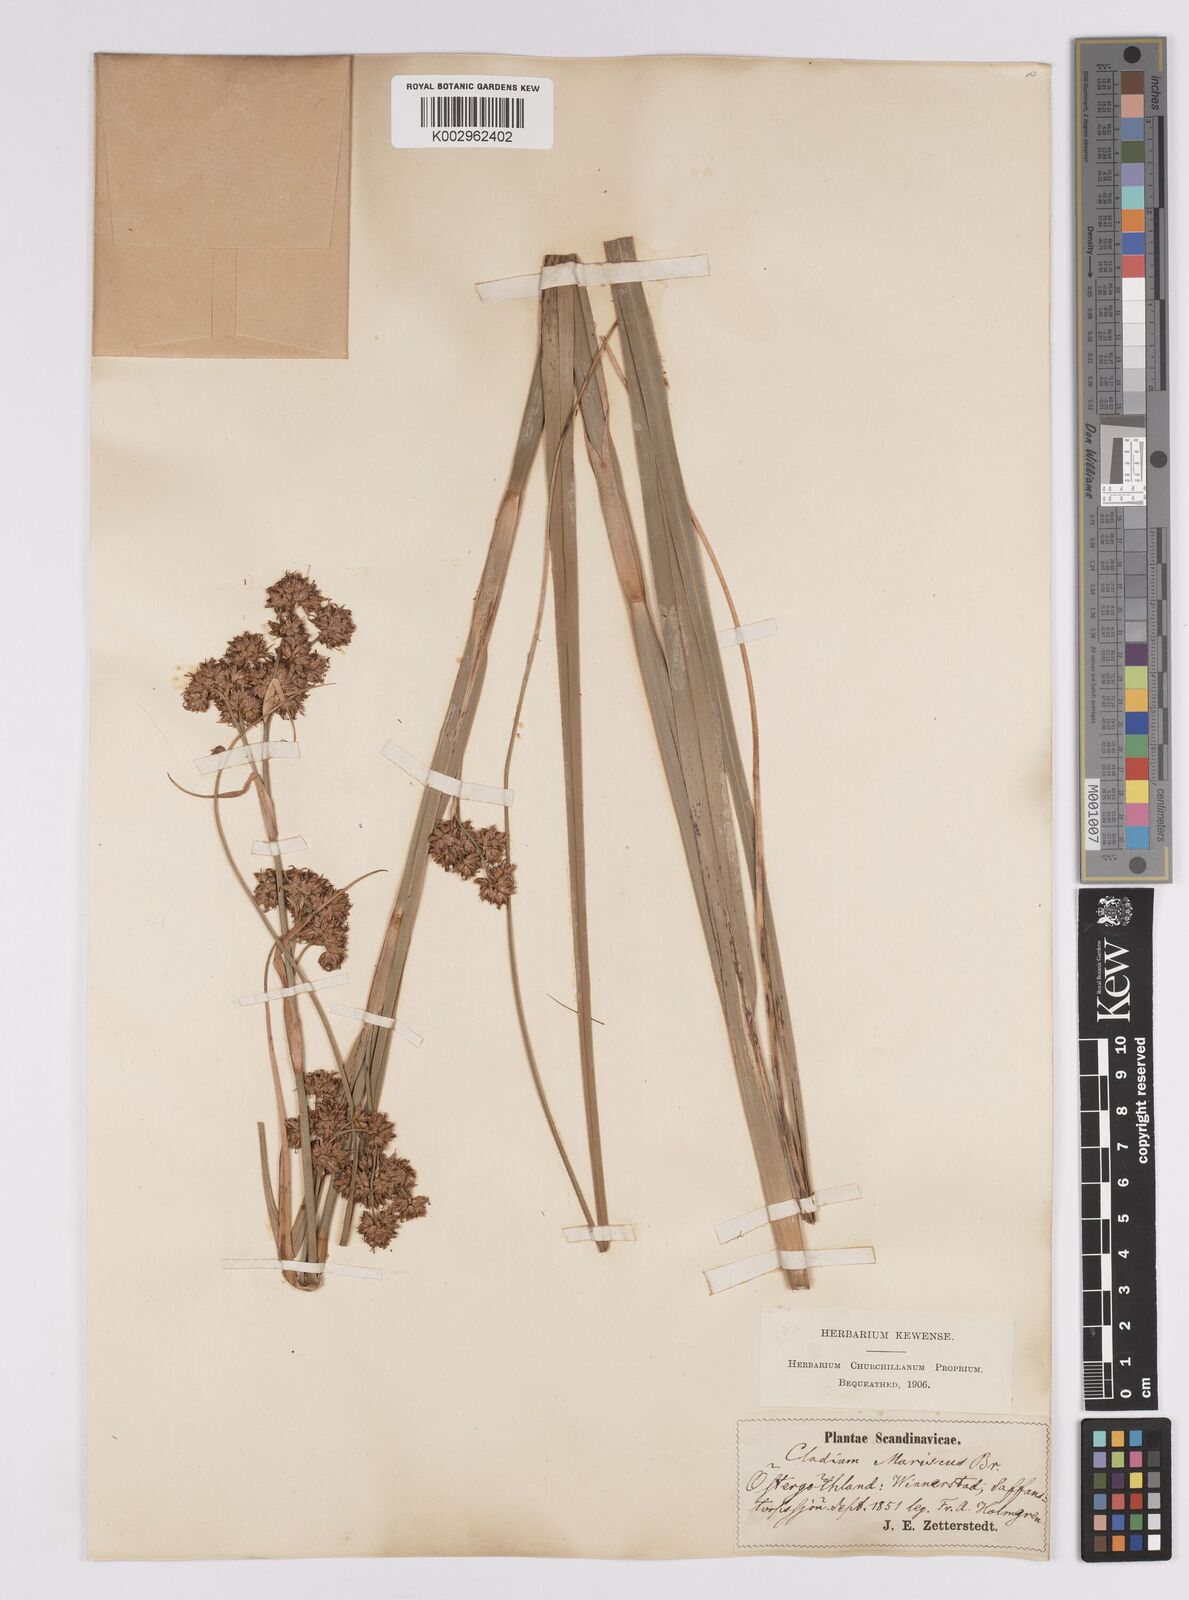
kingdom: Plantae
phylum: Tracheophyta
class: Liliopsida
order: Poales
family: Cyperaceae
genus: Cladium
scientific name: Cladium mariscus
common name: Great fen-sedge
